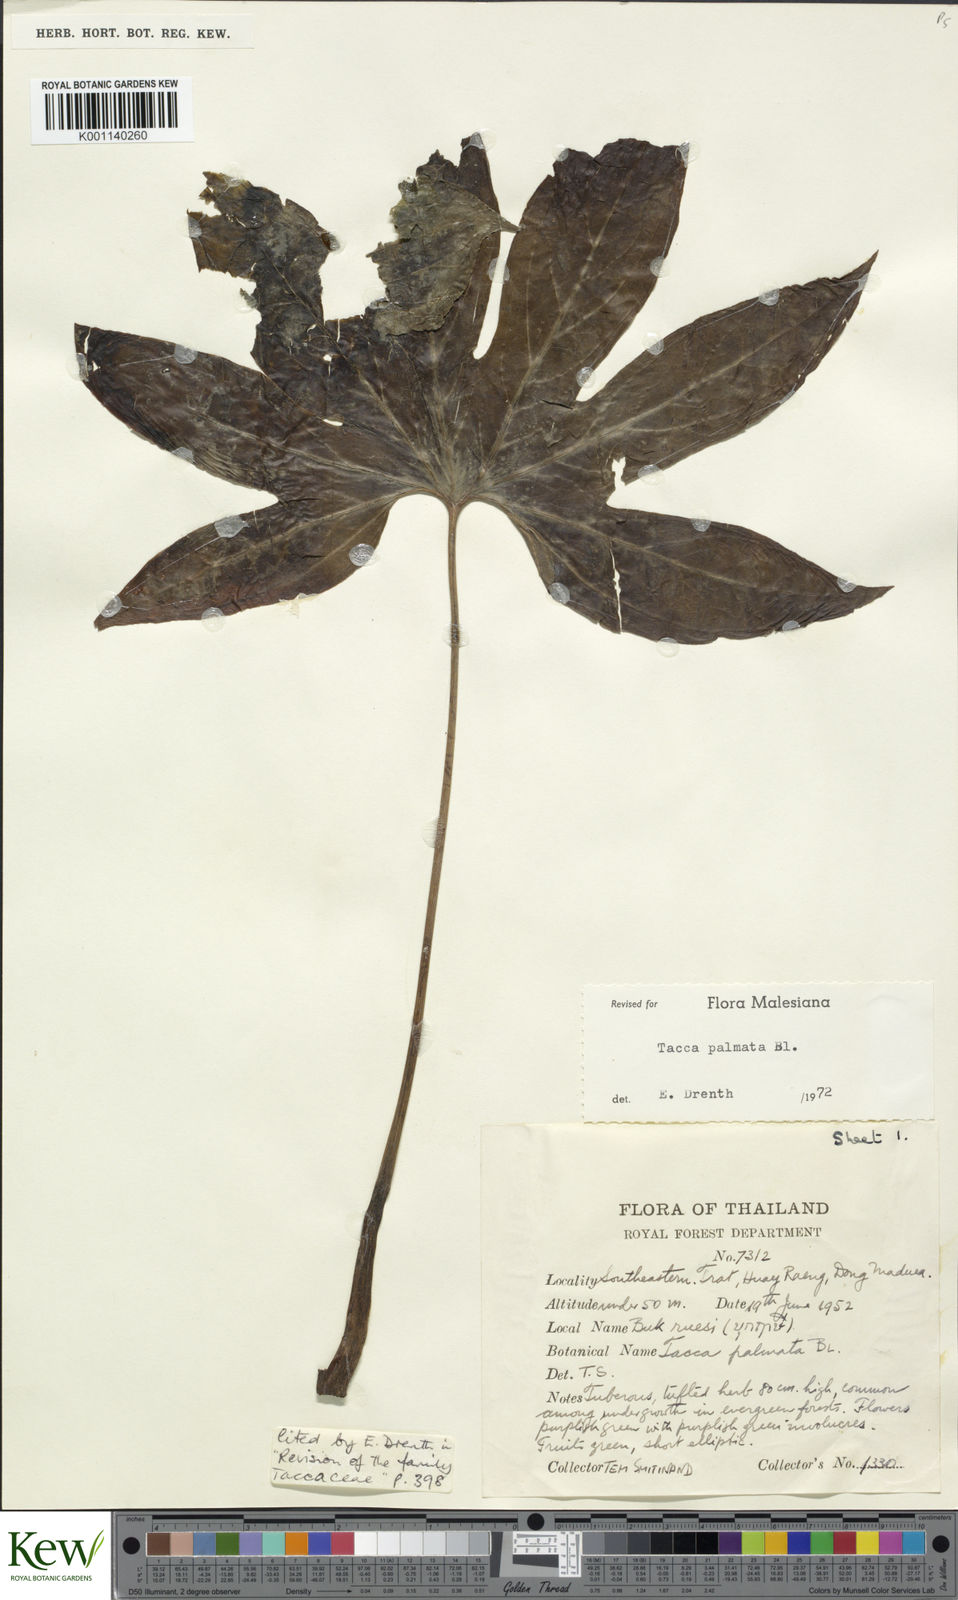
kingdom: Plantae
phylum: Tracheophyta
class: Liliopsida
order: Dioscoreales
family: Dioscoreaceae
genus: Tacca
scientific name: Tacca palmata
